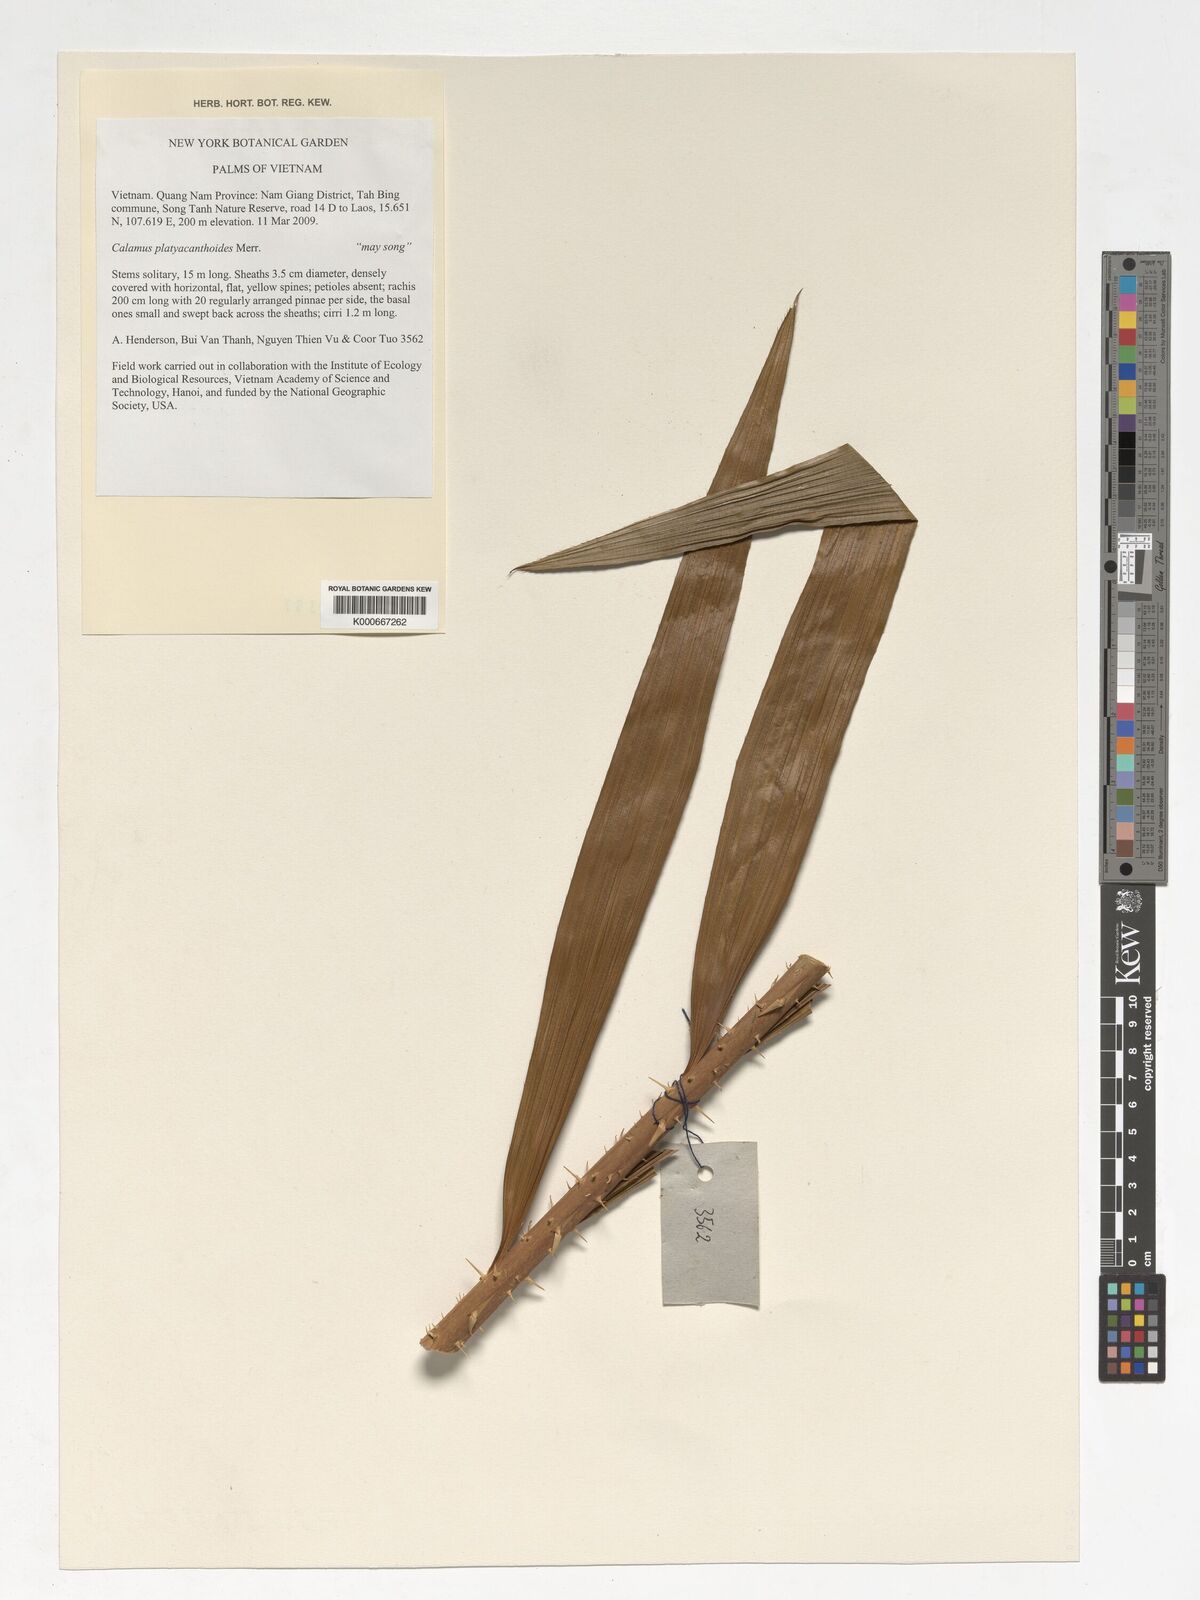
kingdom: Plantae
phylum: Tracheophyta
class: Liliopsida
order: Arecales
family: Arecaceae
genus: Calamus
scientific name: Calamus inermis
